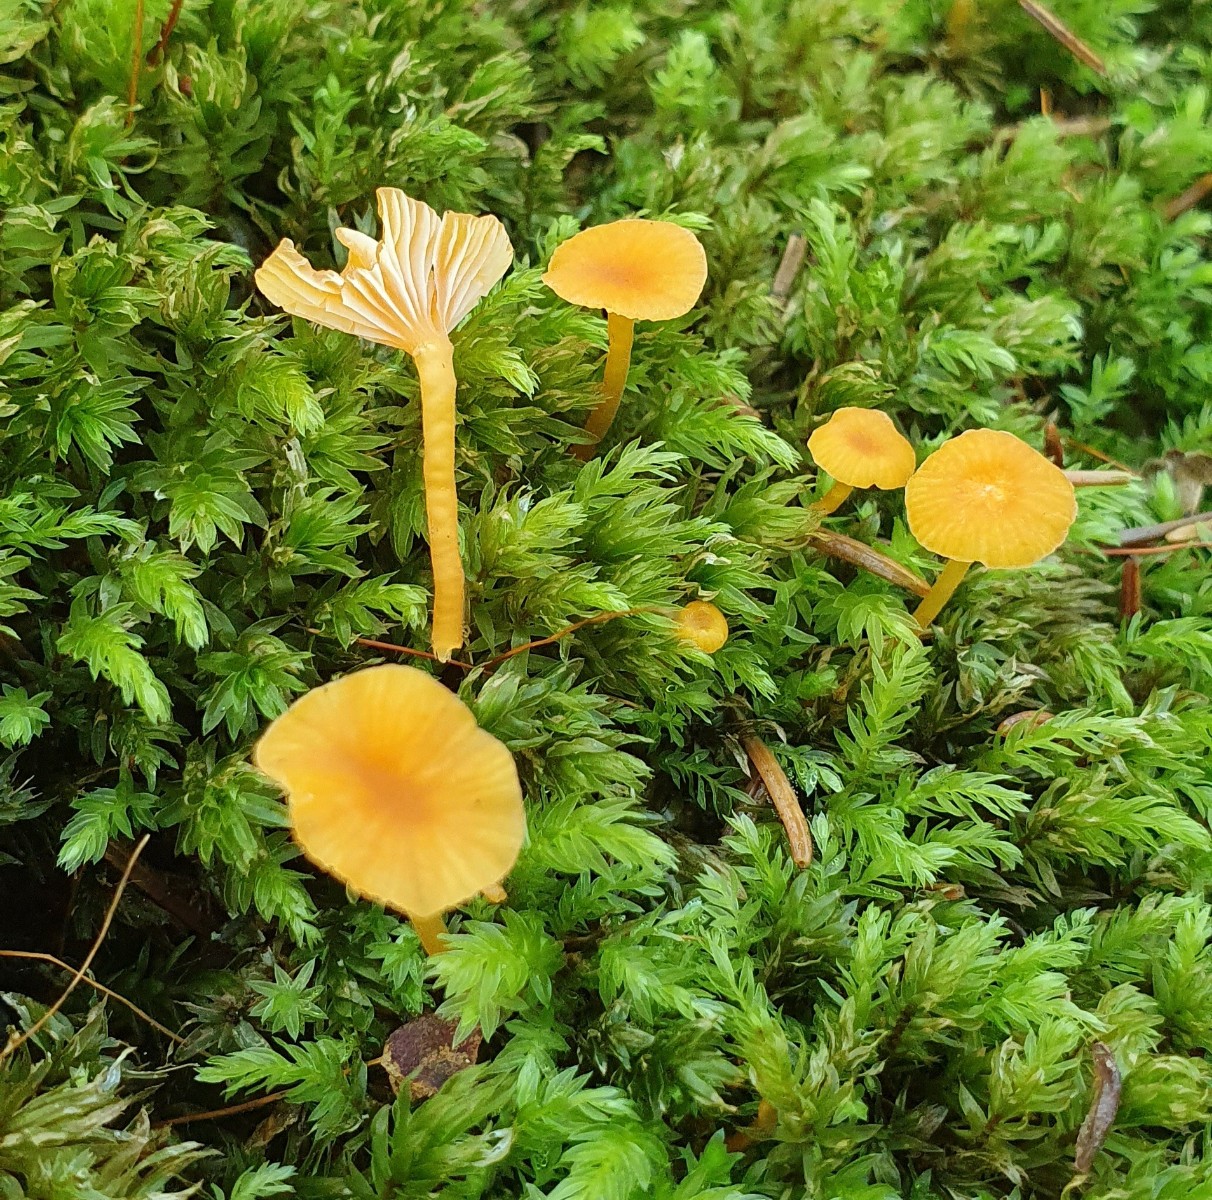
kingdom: Fungi
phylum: Basidiomycota
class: Agaricomycetes
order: Hymenochaetales
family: Rickenellaceae
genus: Rickenella
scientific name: Rickenella fibula
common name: orange mosnavlehat
